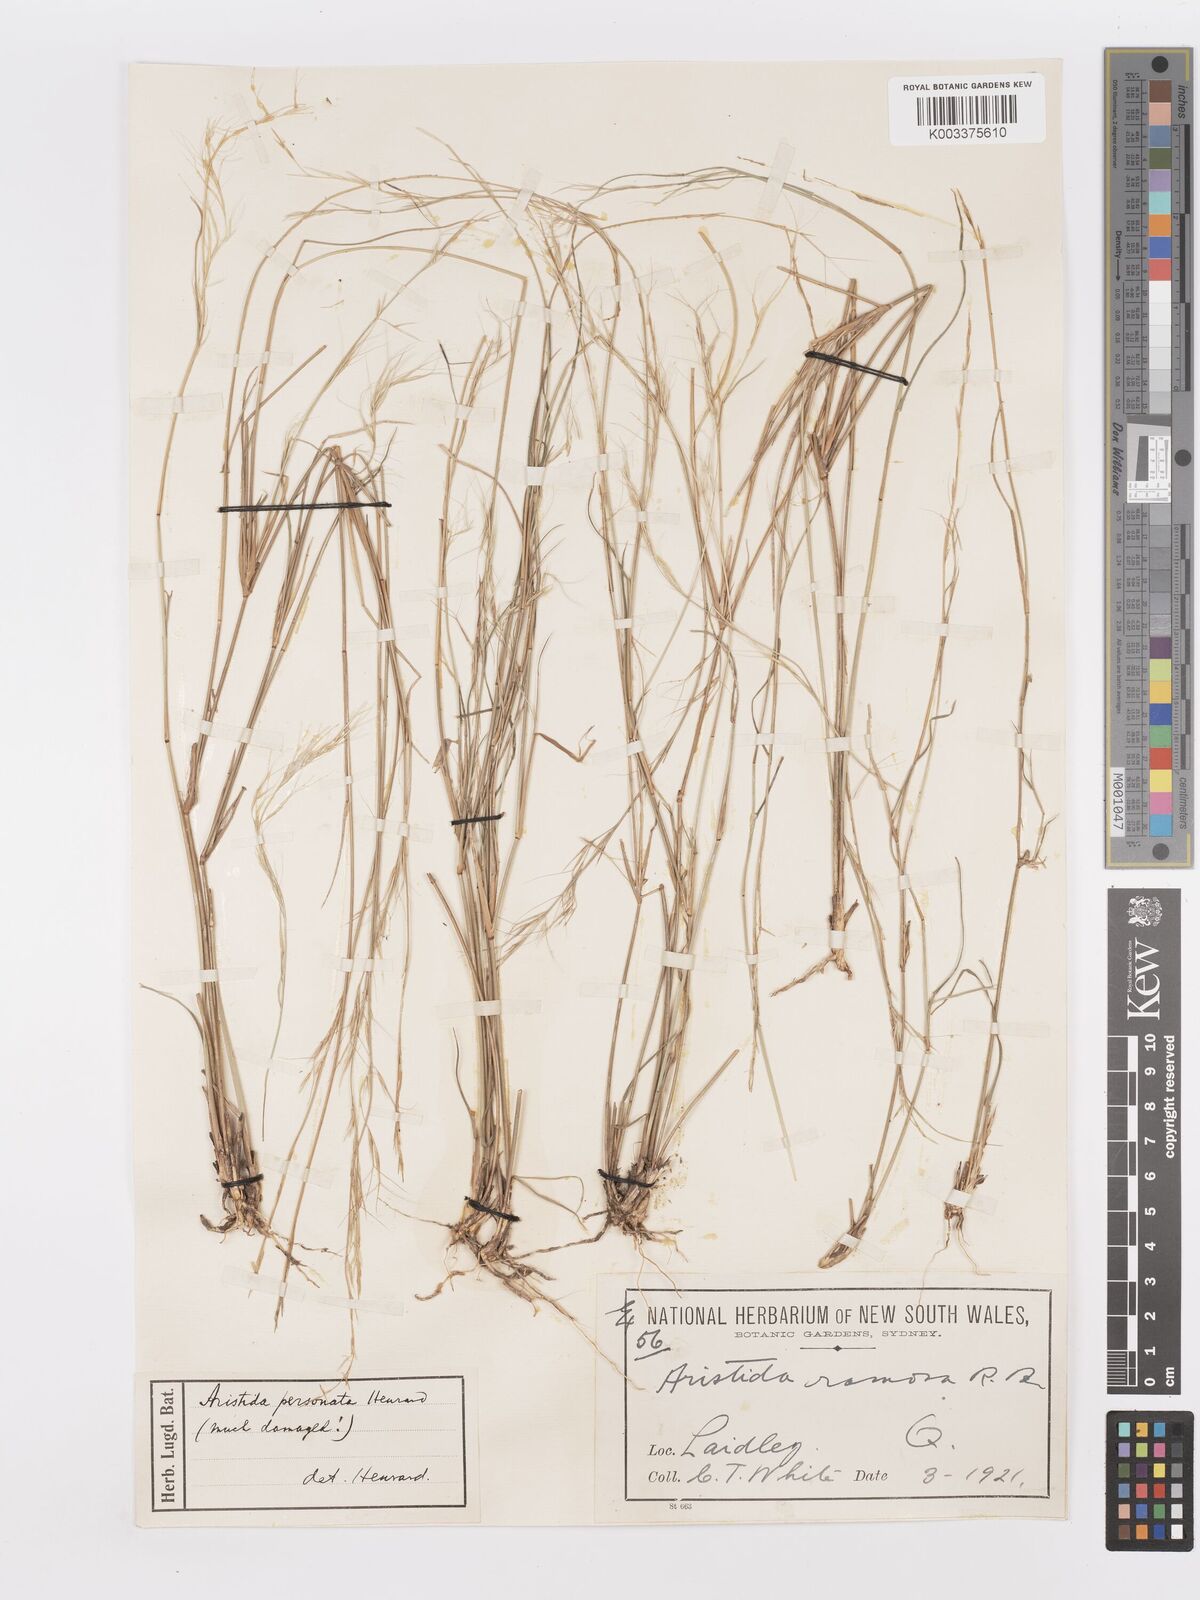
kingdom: Plantae
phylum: Tracheophyta
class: Liliopsida
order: Poales
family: Poaceae
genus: Aristida
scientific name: Aristida personata
